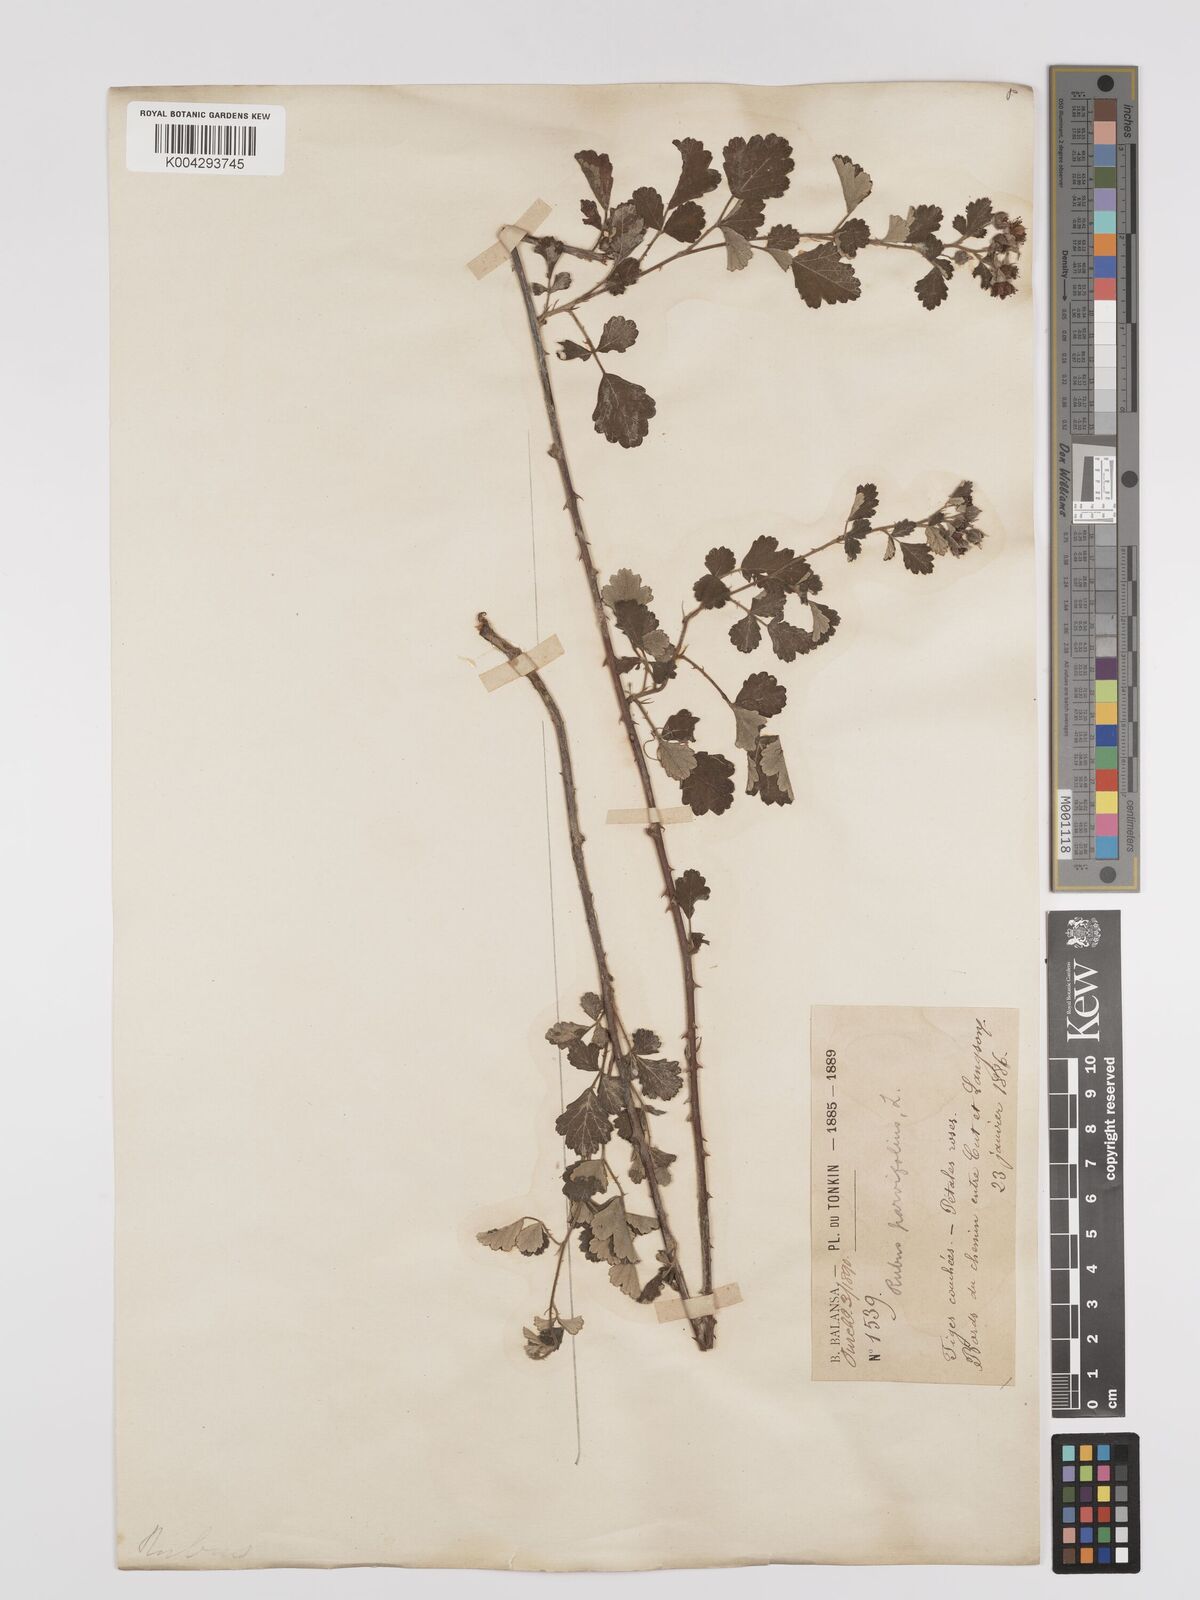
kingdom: Plantae
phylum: Tracheophyta
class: Magnoliopsida
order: Rosales
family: Rosaceae
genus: Rubus
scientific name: Rubus
